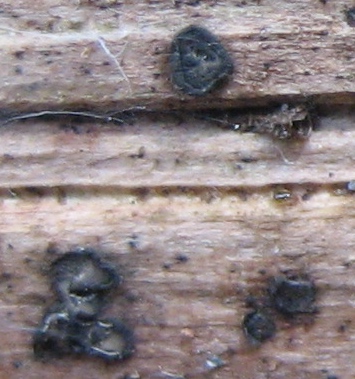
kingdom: Fungi
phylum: Ascomycota
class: Leotiomycetes
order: Helotiales
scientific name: Helotiales
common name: stilkskiveordenen
